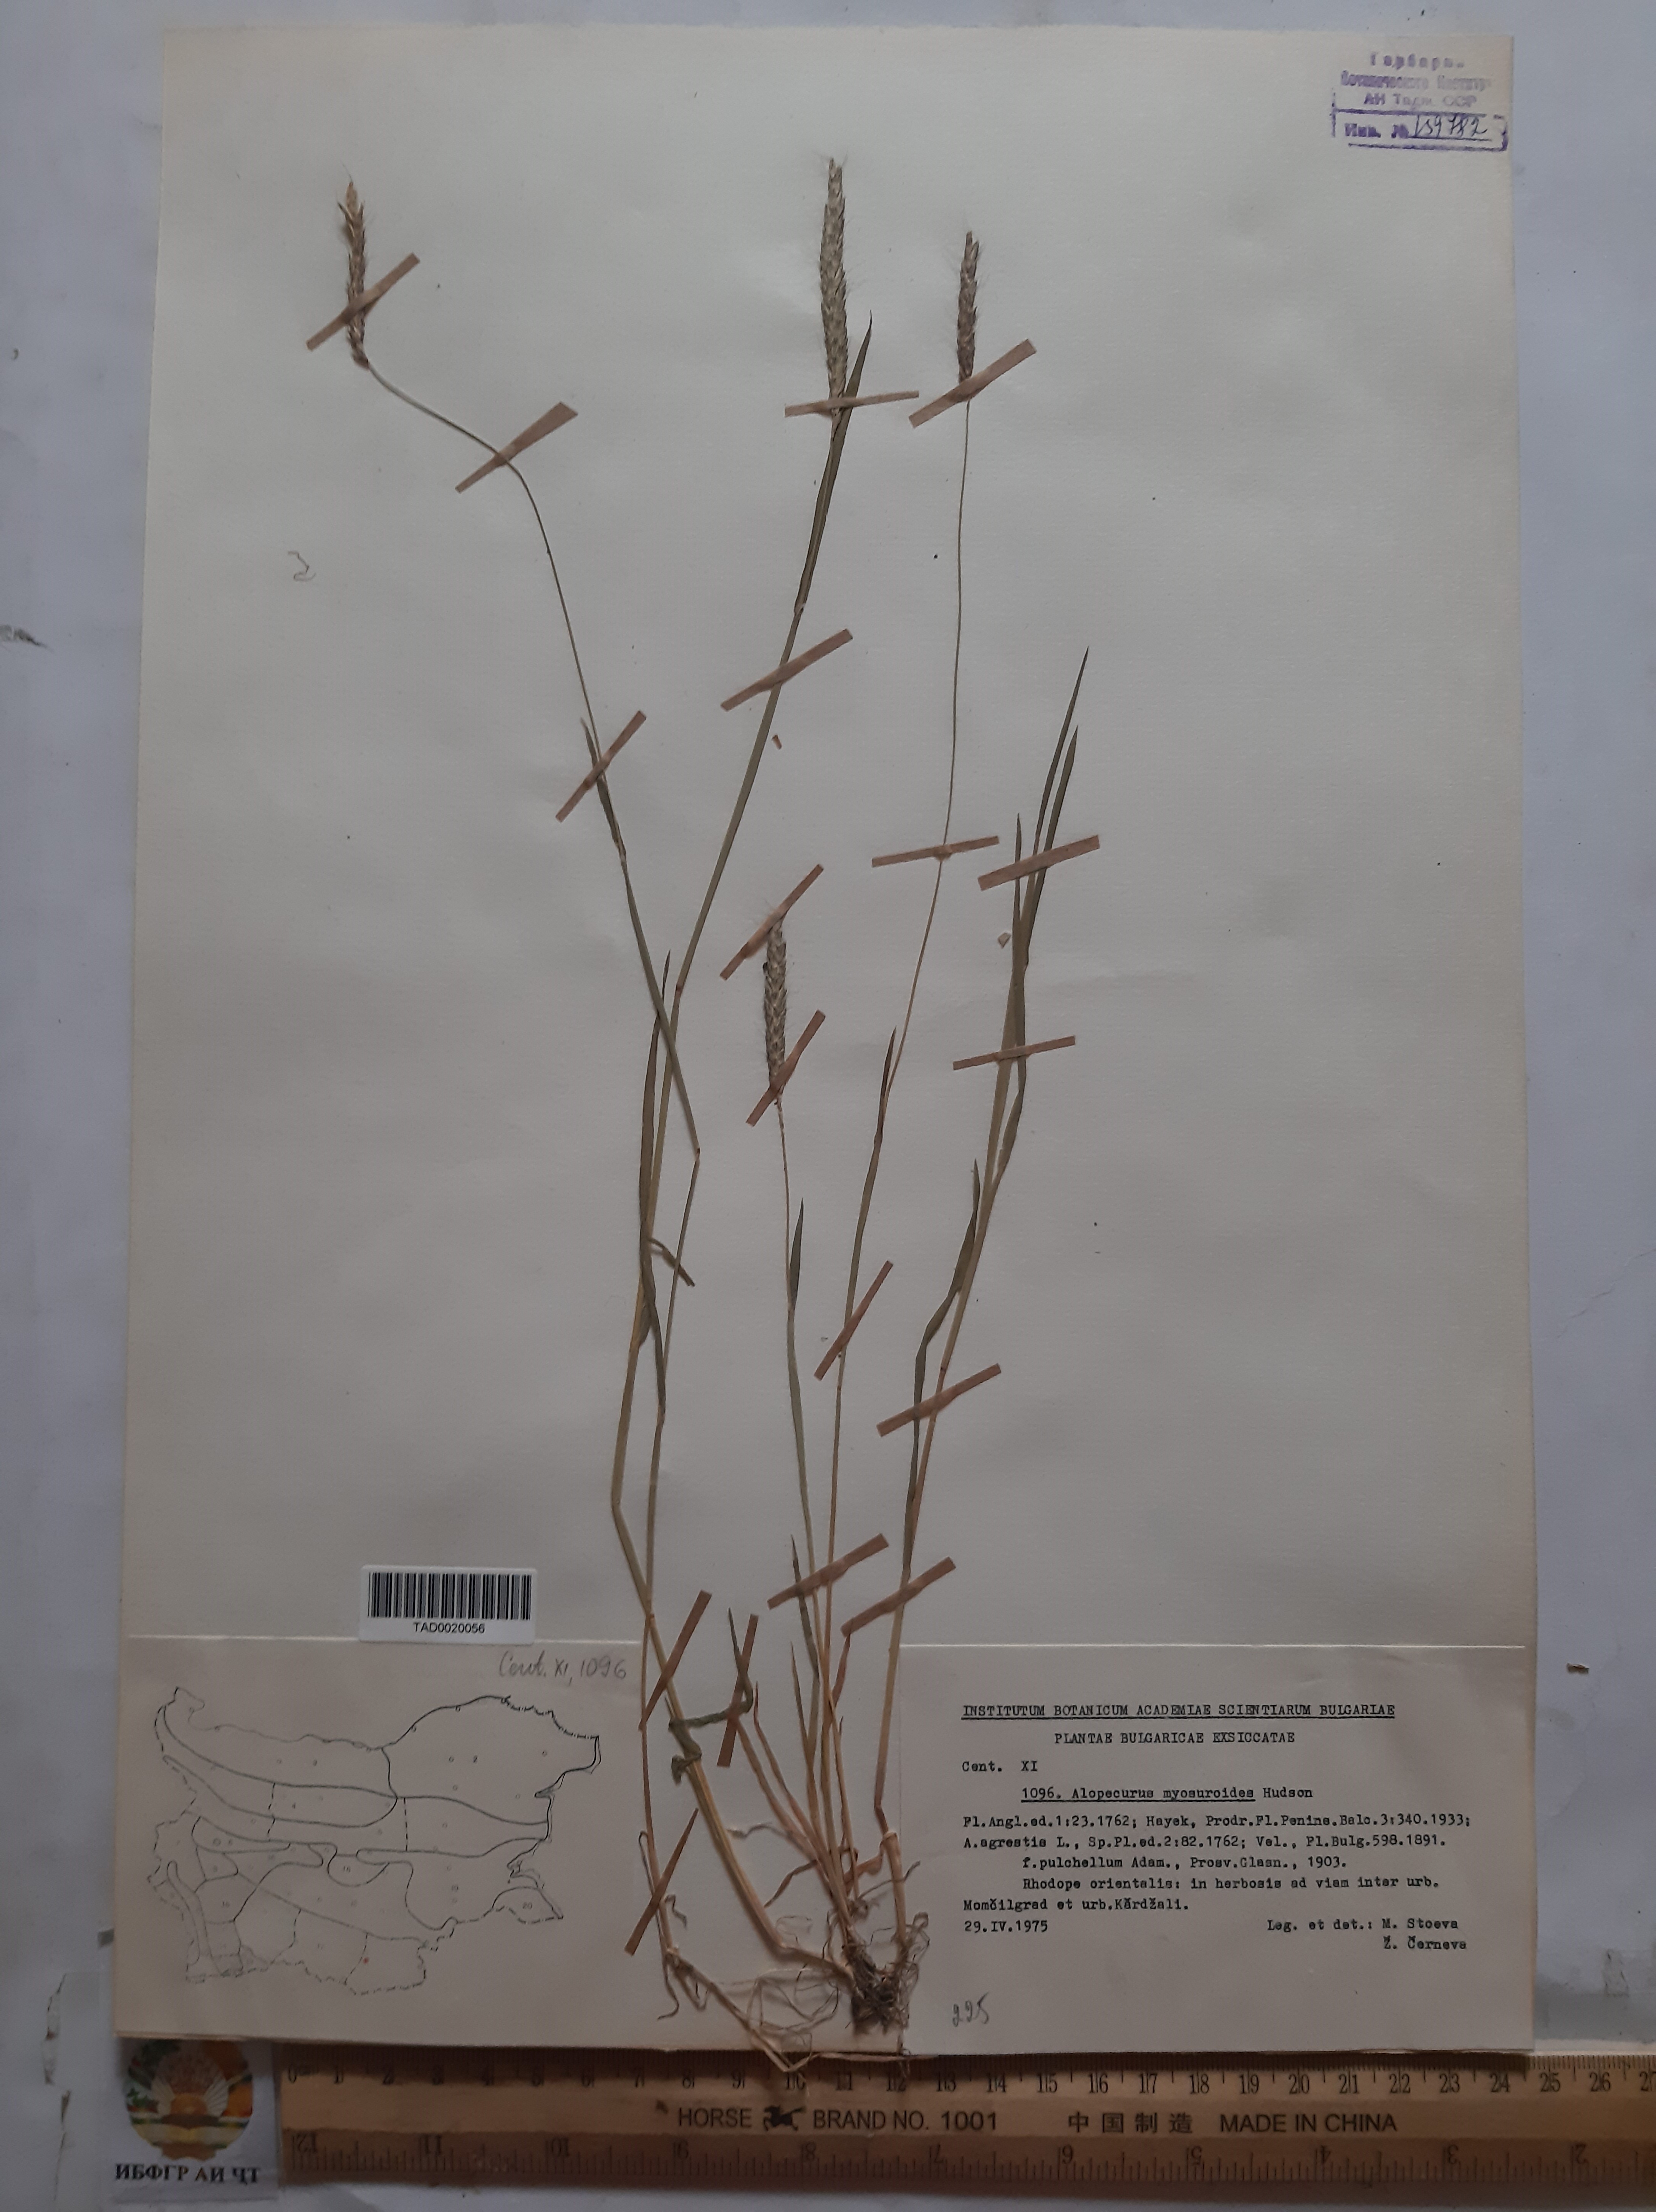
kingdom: Plantae
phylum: Tracheophyta
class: Liliopsida
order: Poales
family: Poaceae
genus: Alopecurus
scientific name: Alopecurus myosuroides
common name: Black-grass
